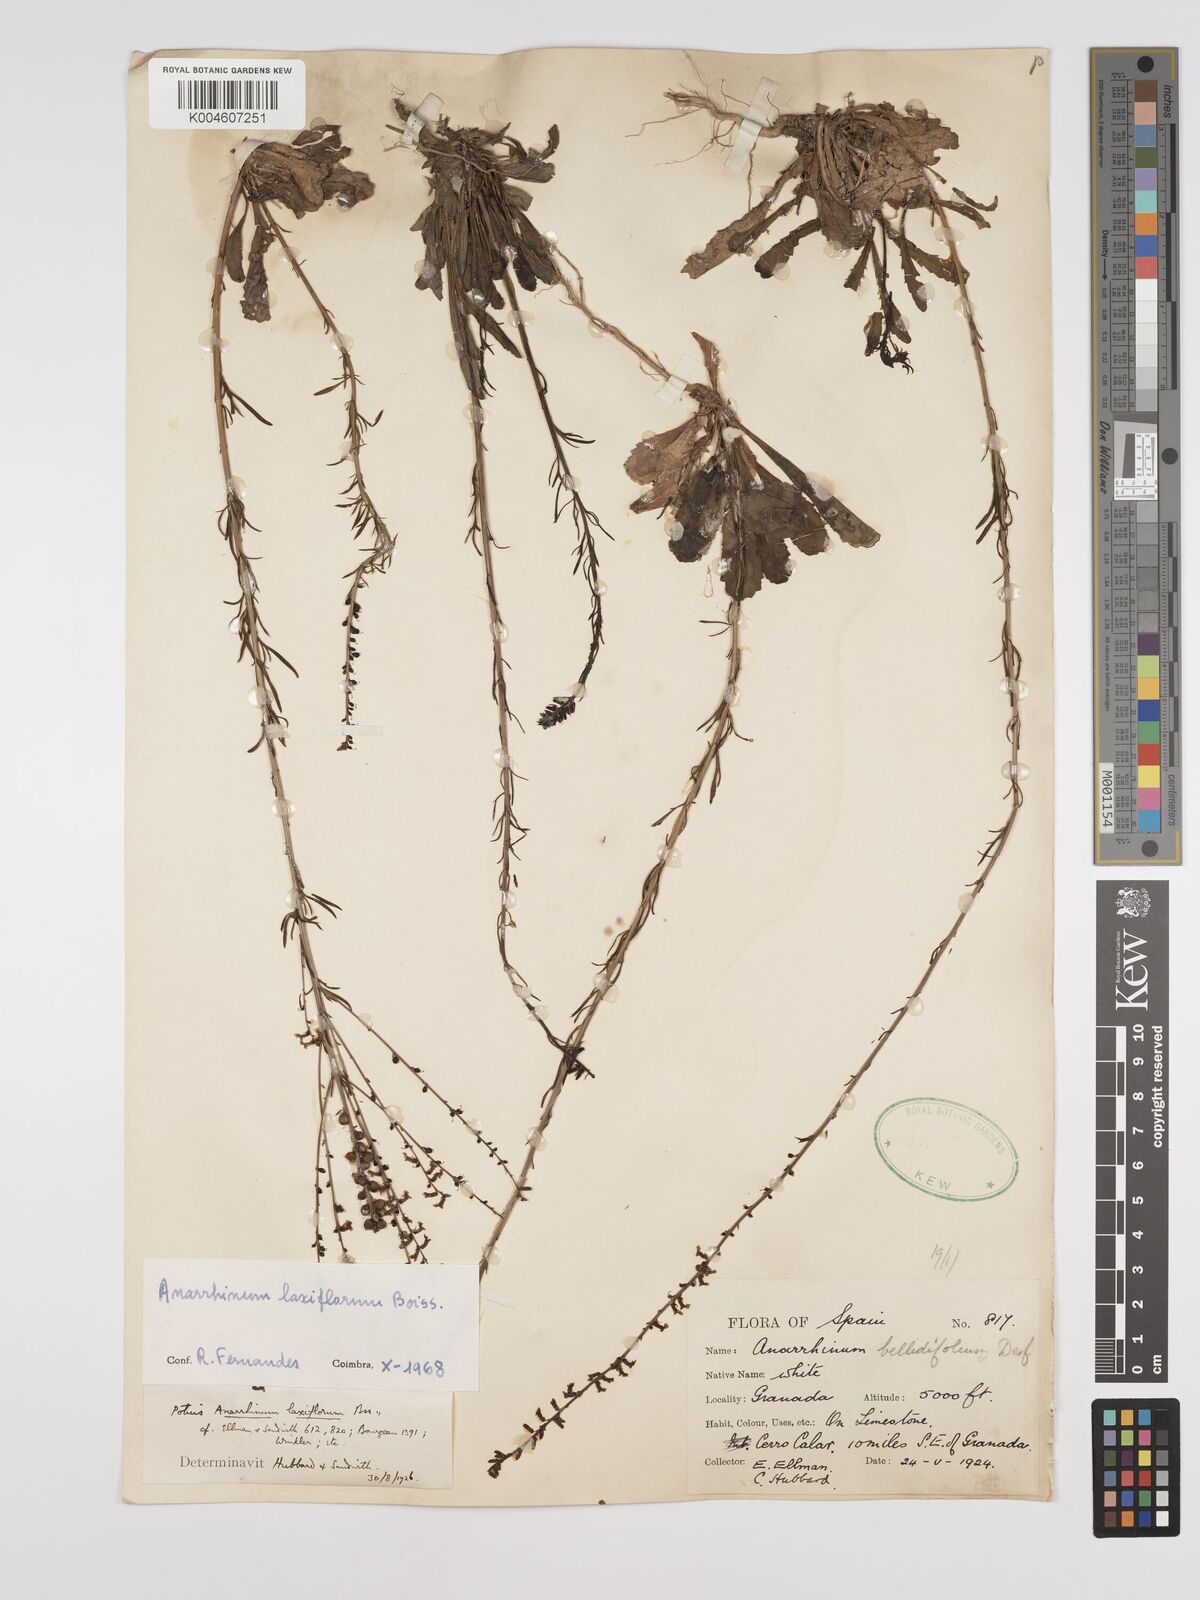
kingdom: Plantae
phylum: Tracheophyta
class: Magnoliopsida
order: Lamiales
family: Plantaginaceae
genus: Anarrhinum
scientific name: Anarrhinum laxiflorum
